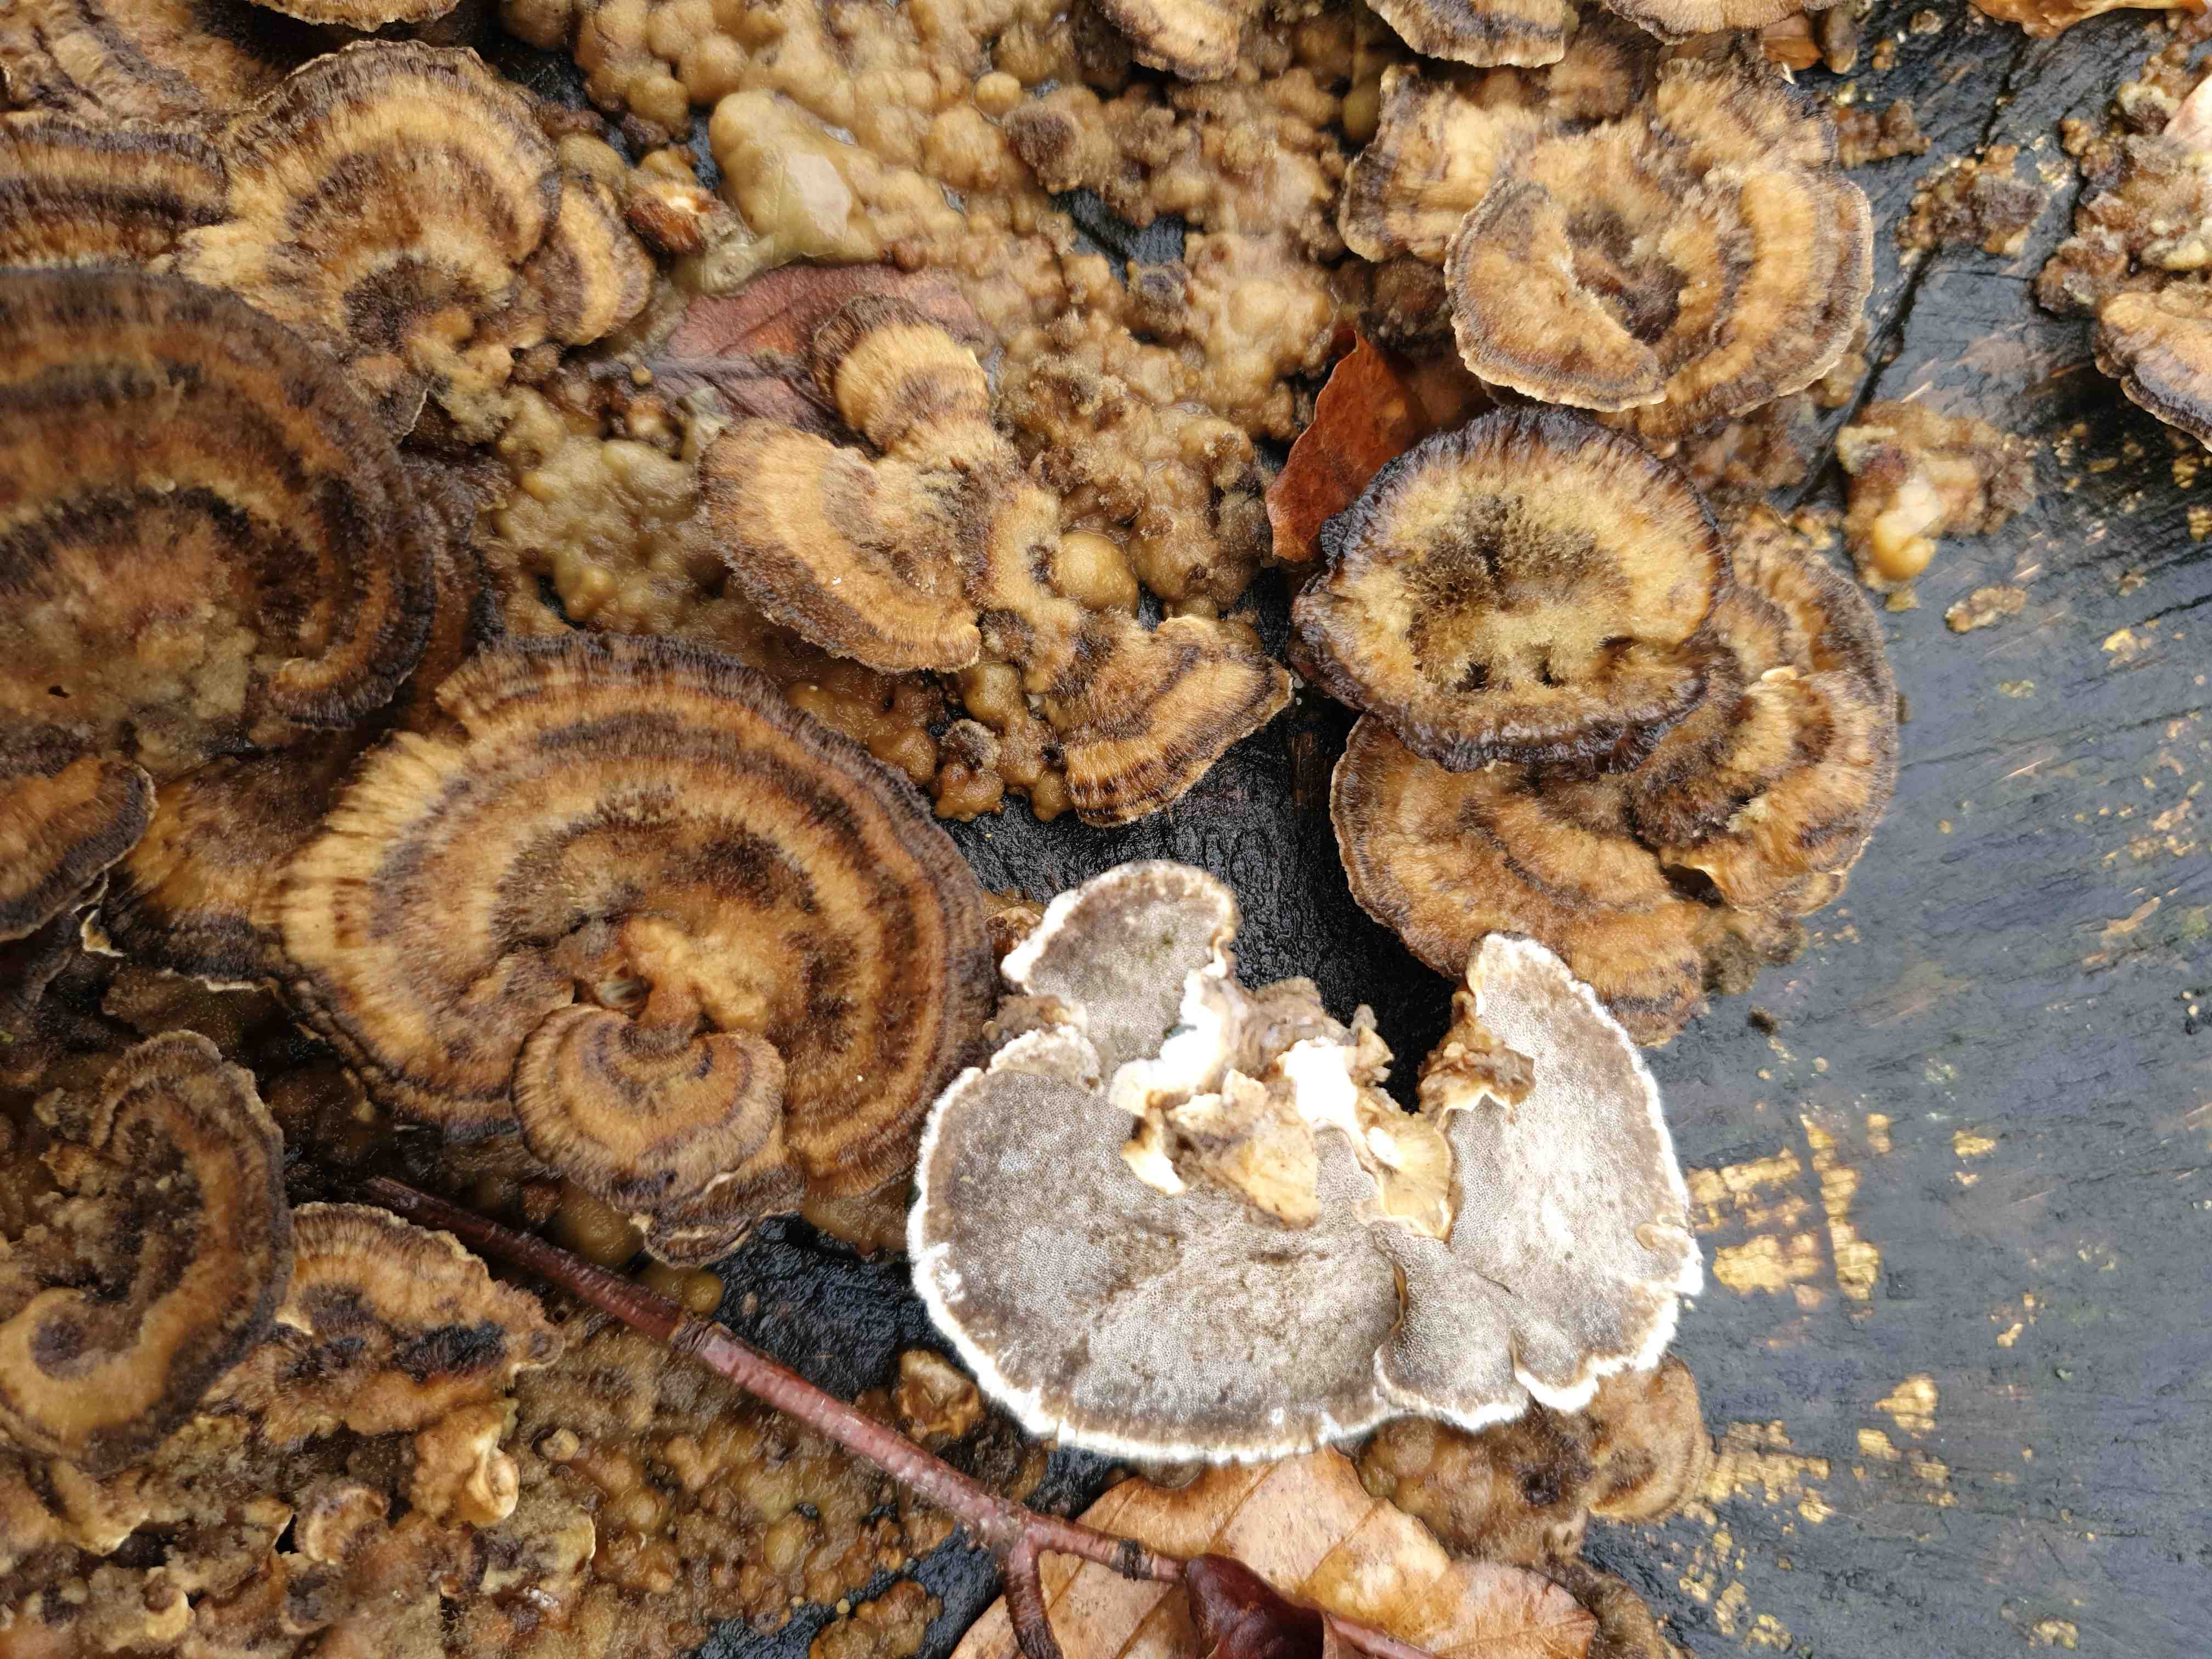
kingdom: Fungi
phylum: Basidiomycota
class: Agaricomycetes
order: Polyporales
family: Phanerochaetaceae
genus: Bjerkandera
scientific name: Bjerkandera adusta
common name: sveden sodporesvamp
